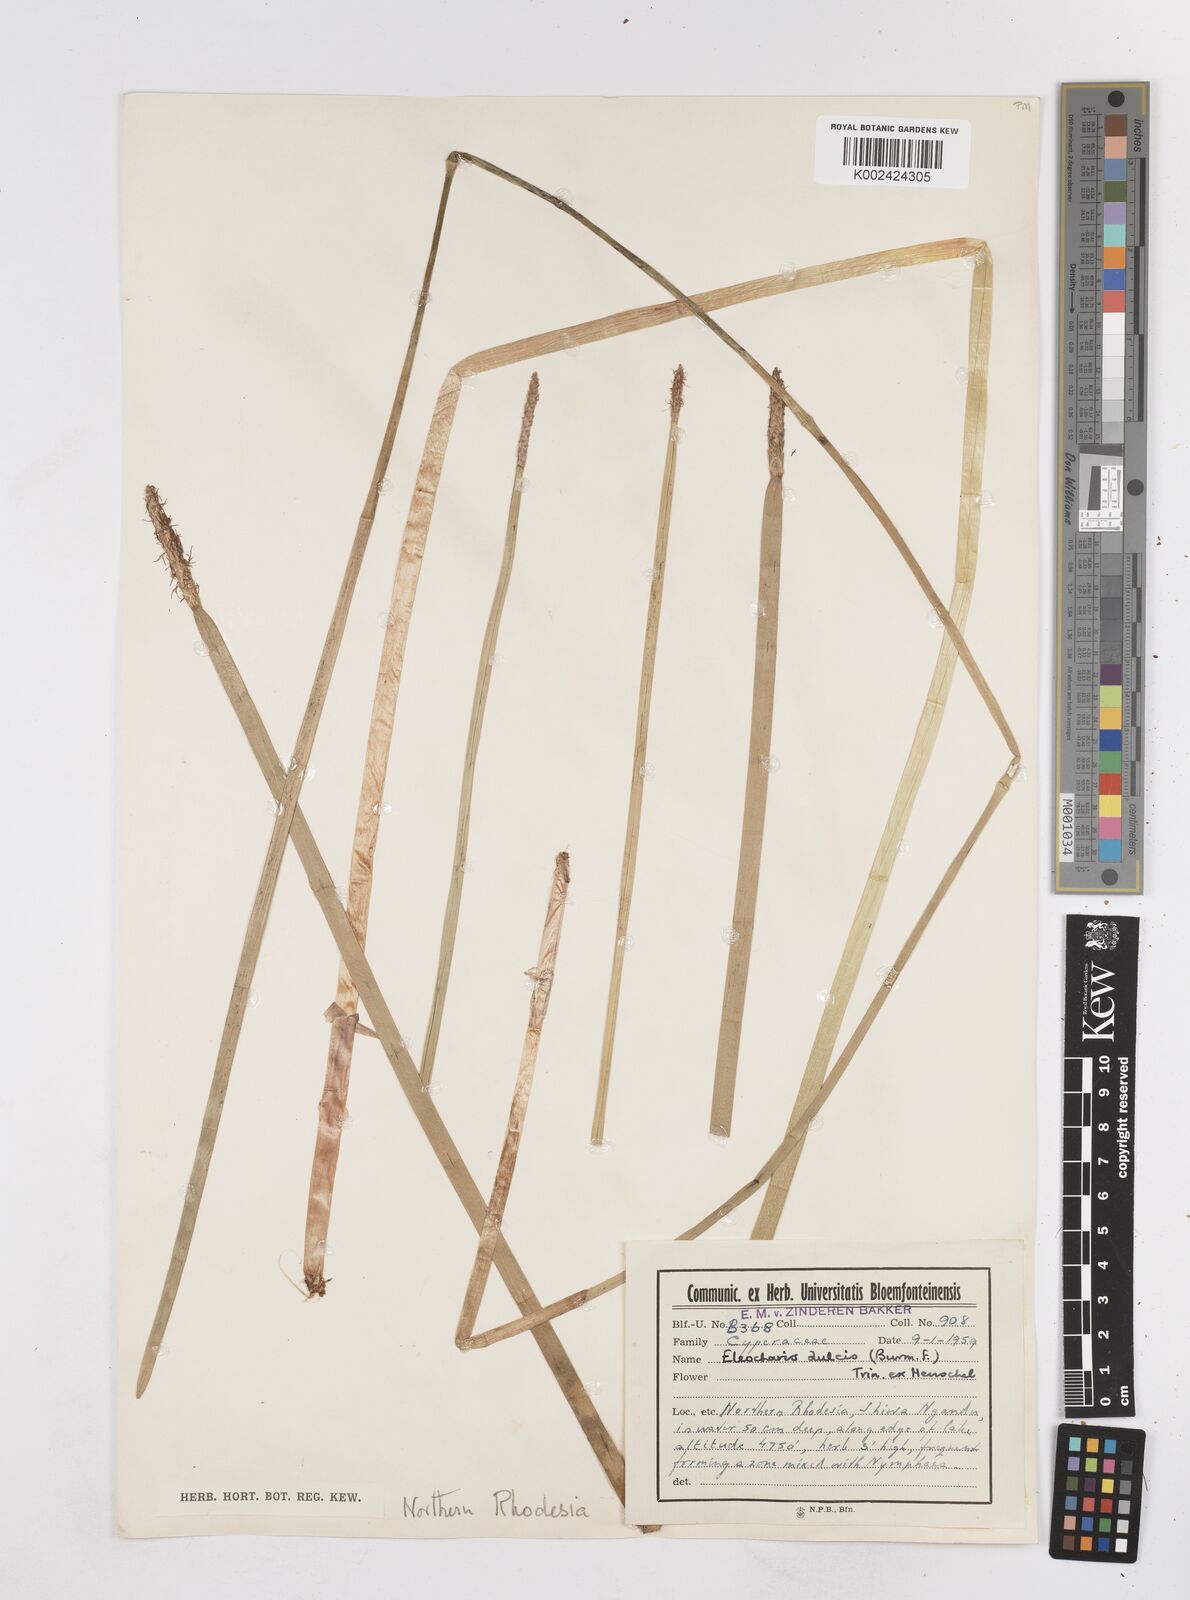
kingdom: Plantae
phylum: Tracheophyta
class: Liliopsida
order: Poales
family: Cyperaceae
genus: Eleocharis
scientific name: Eleocharis dulcis
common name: Chinese water chestnut
